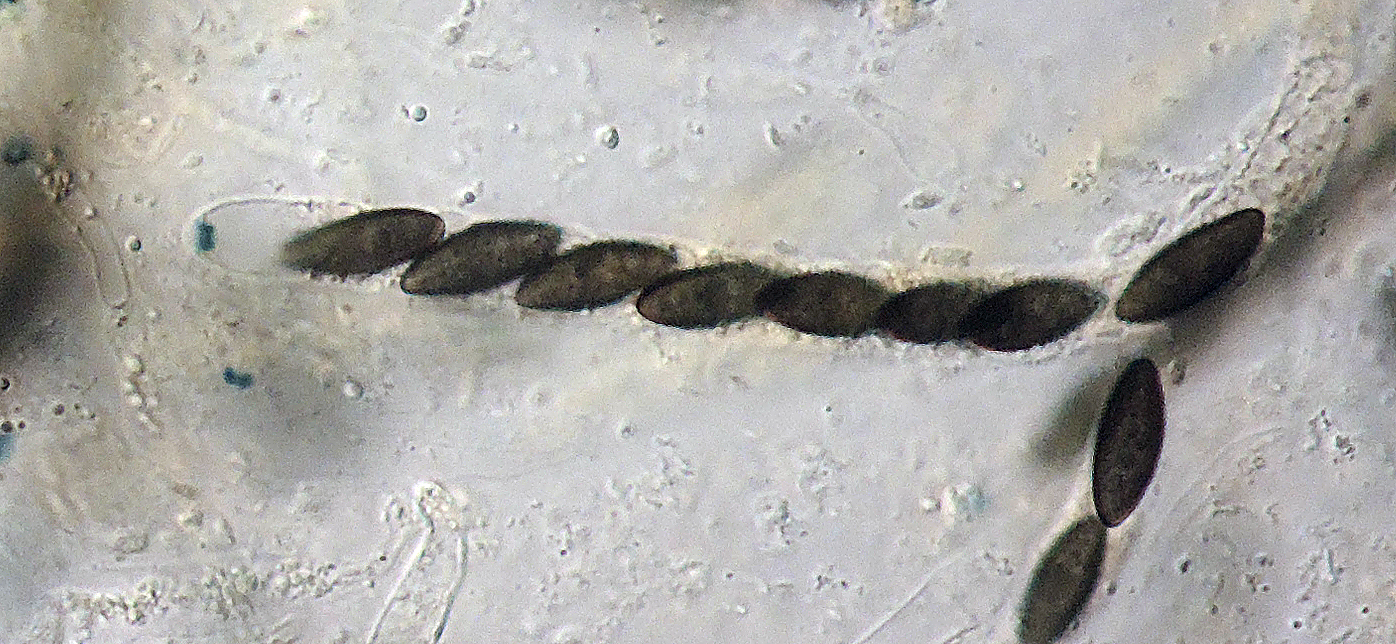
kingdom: Fungi
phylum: Ascomycota
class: Sordariomycetes
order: Xylariales
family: Xylariaceae
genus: Anthostomella
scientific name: Anthostomella leptospora
